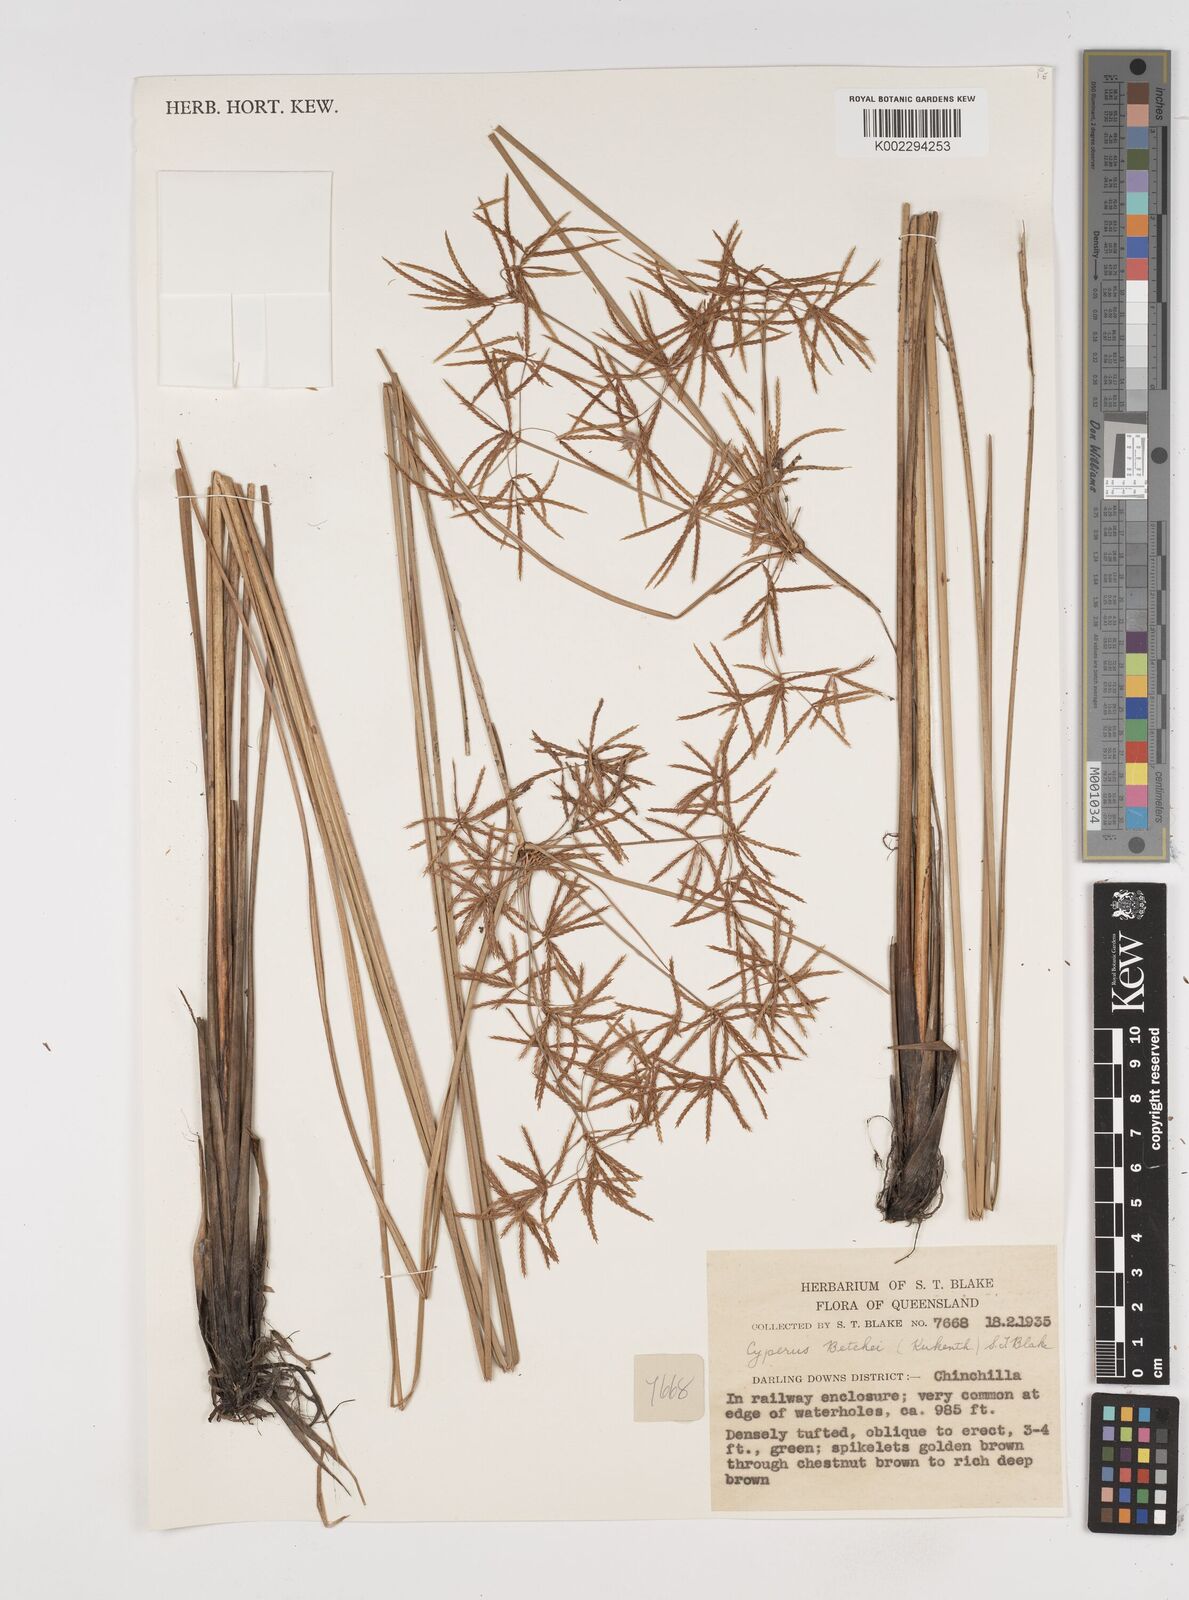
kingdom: Plantae
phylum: Tracheophyta
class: Liliopsida
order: Poales
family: Cyperaceae
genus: Cyperus
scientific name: Cyperus betchei
